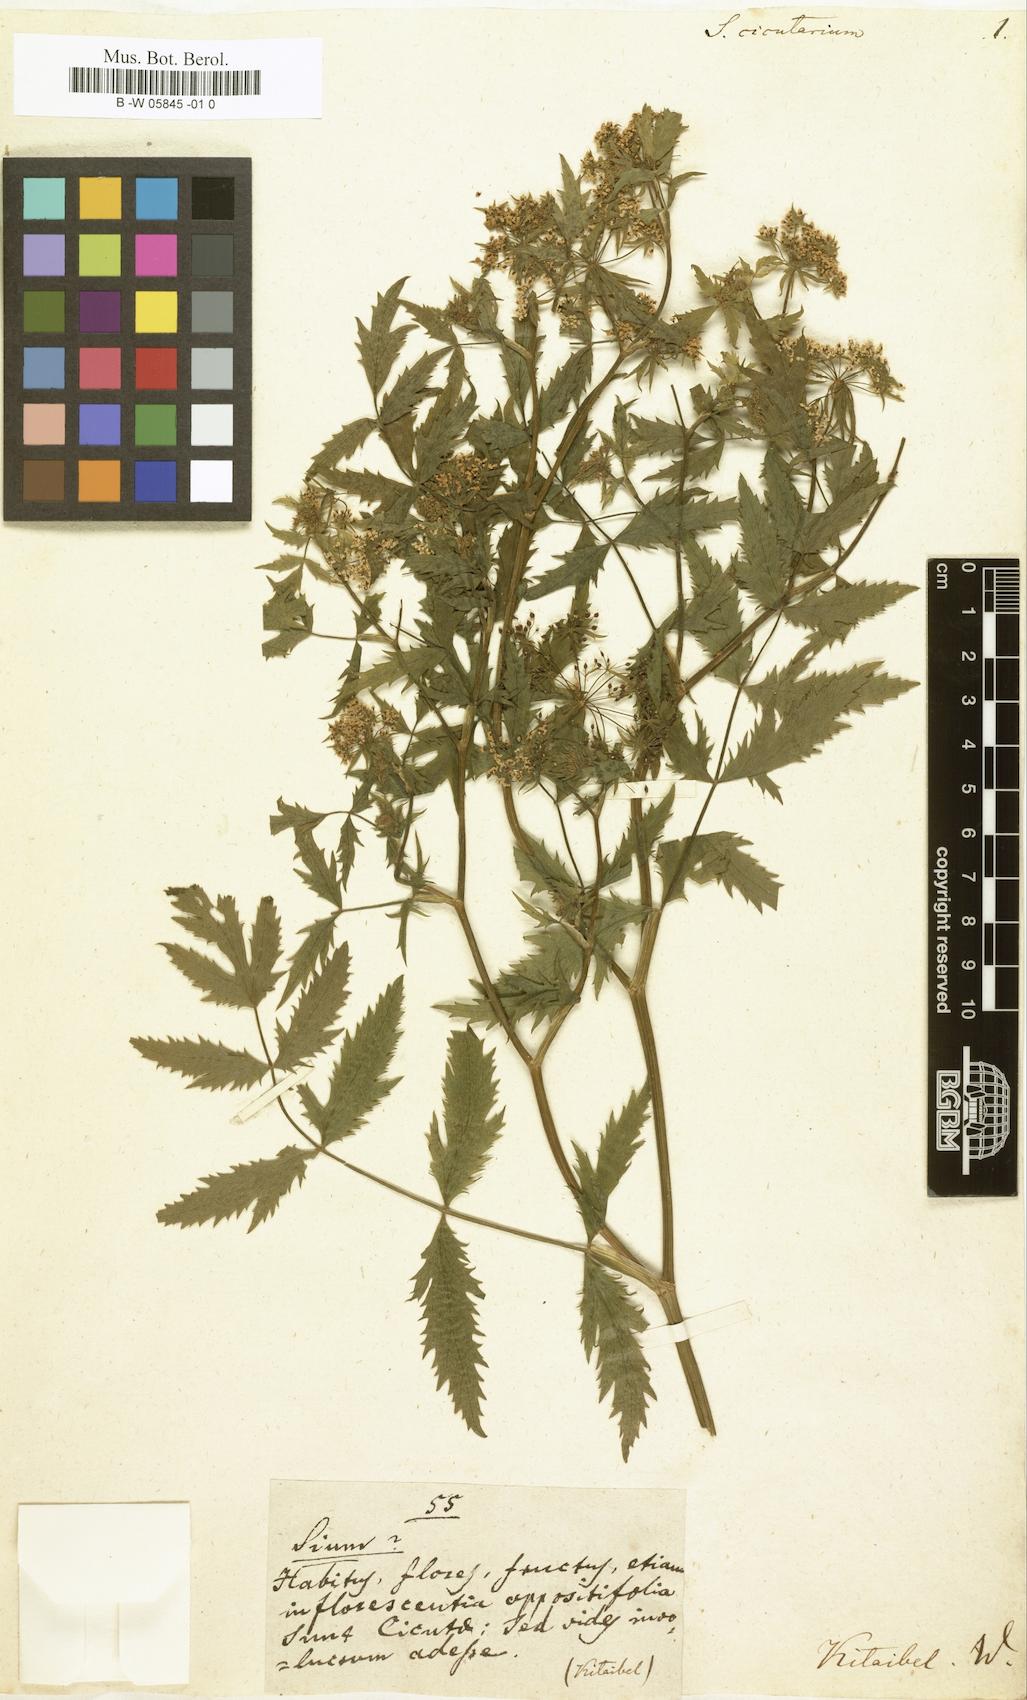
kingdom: Plantae
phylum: Tracheophyta
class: Magnoliopsida
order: Apiales
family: Apiaceae
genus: Sium
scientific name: Sium suave
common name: Hemlock water-parsnip
